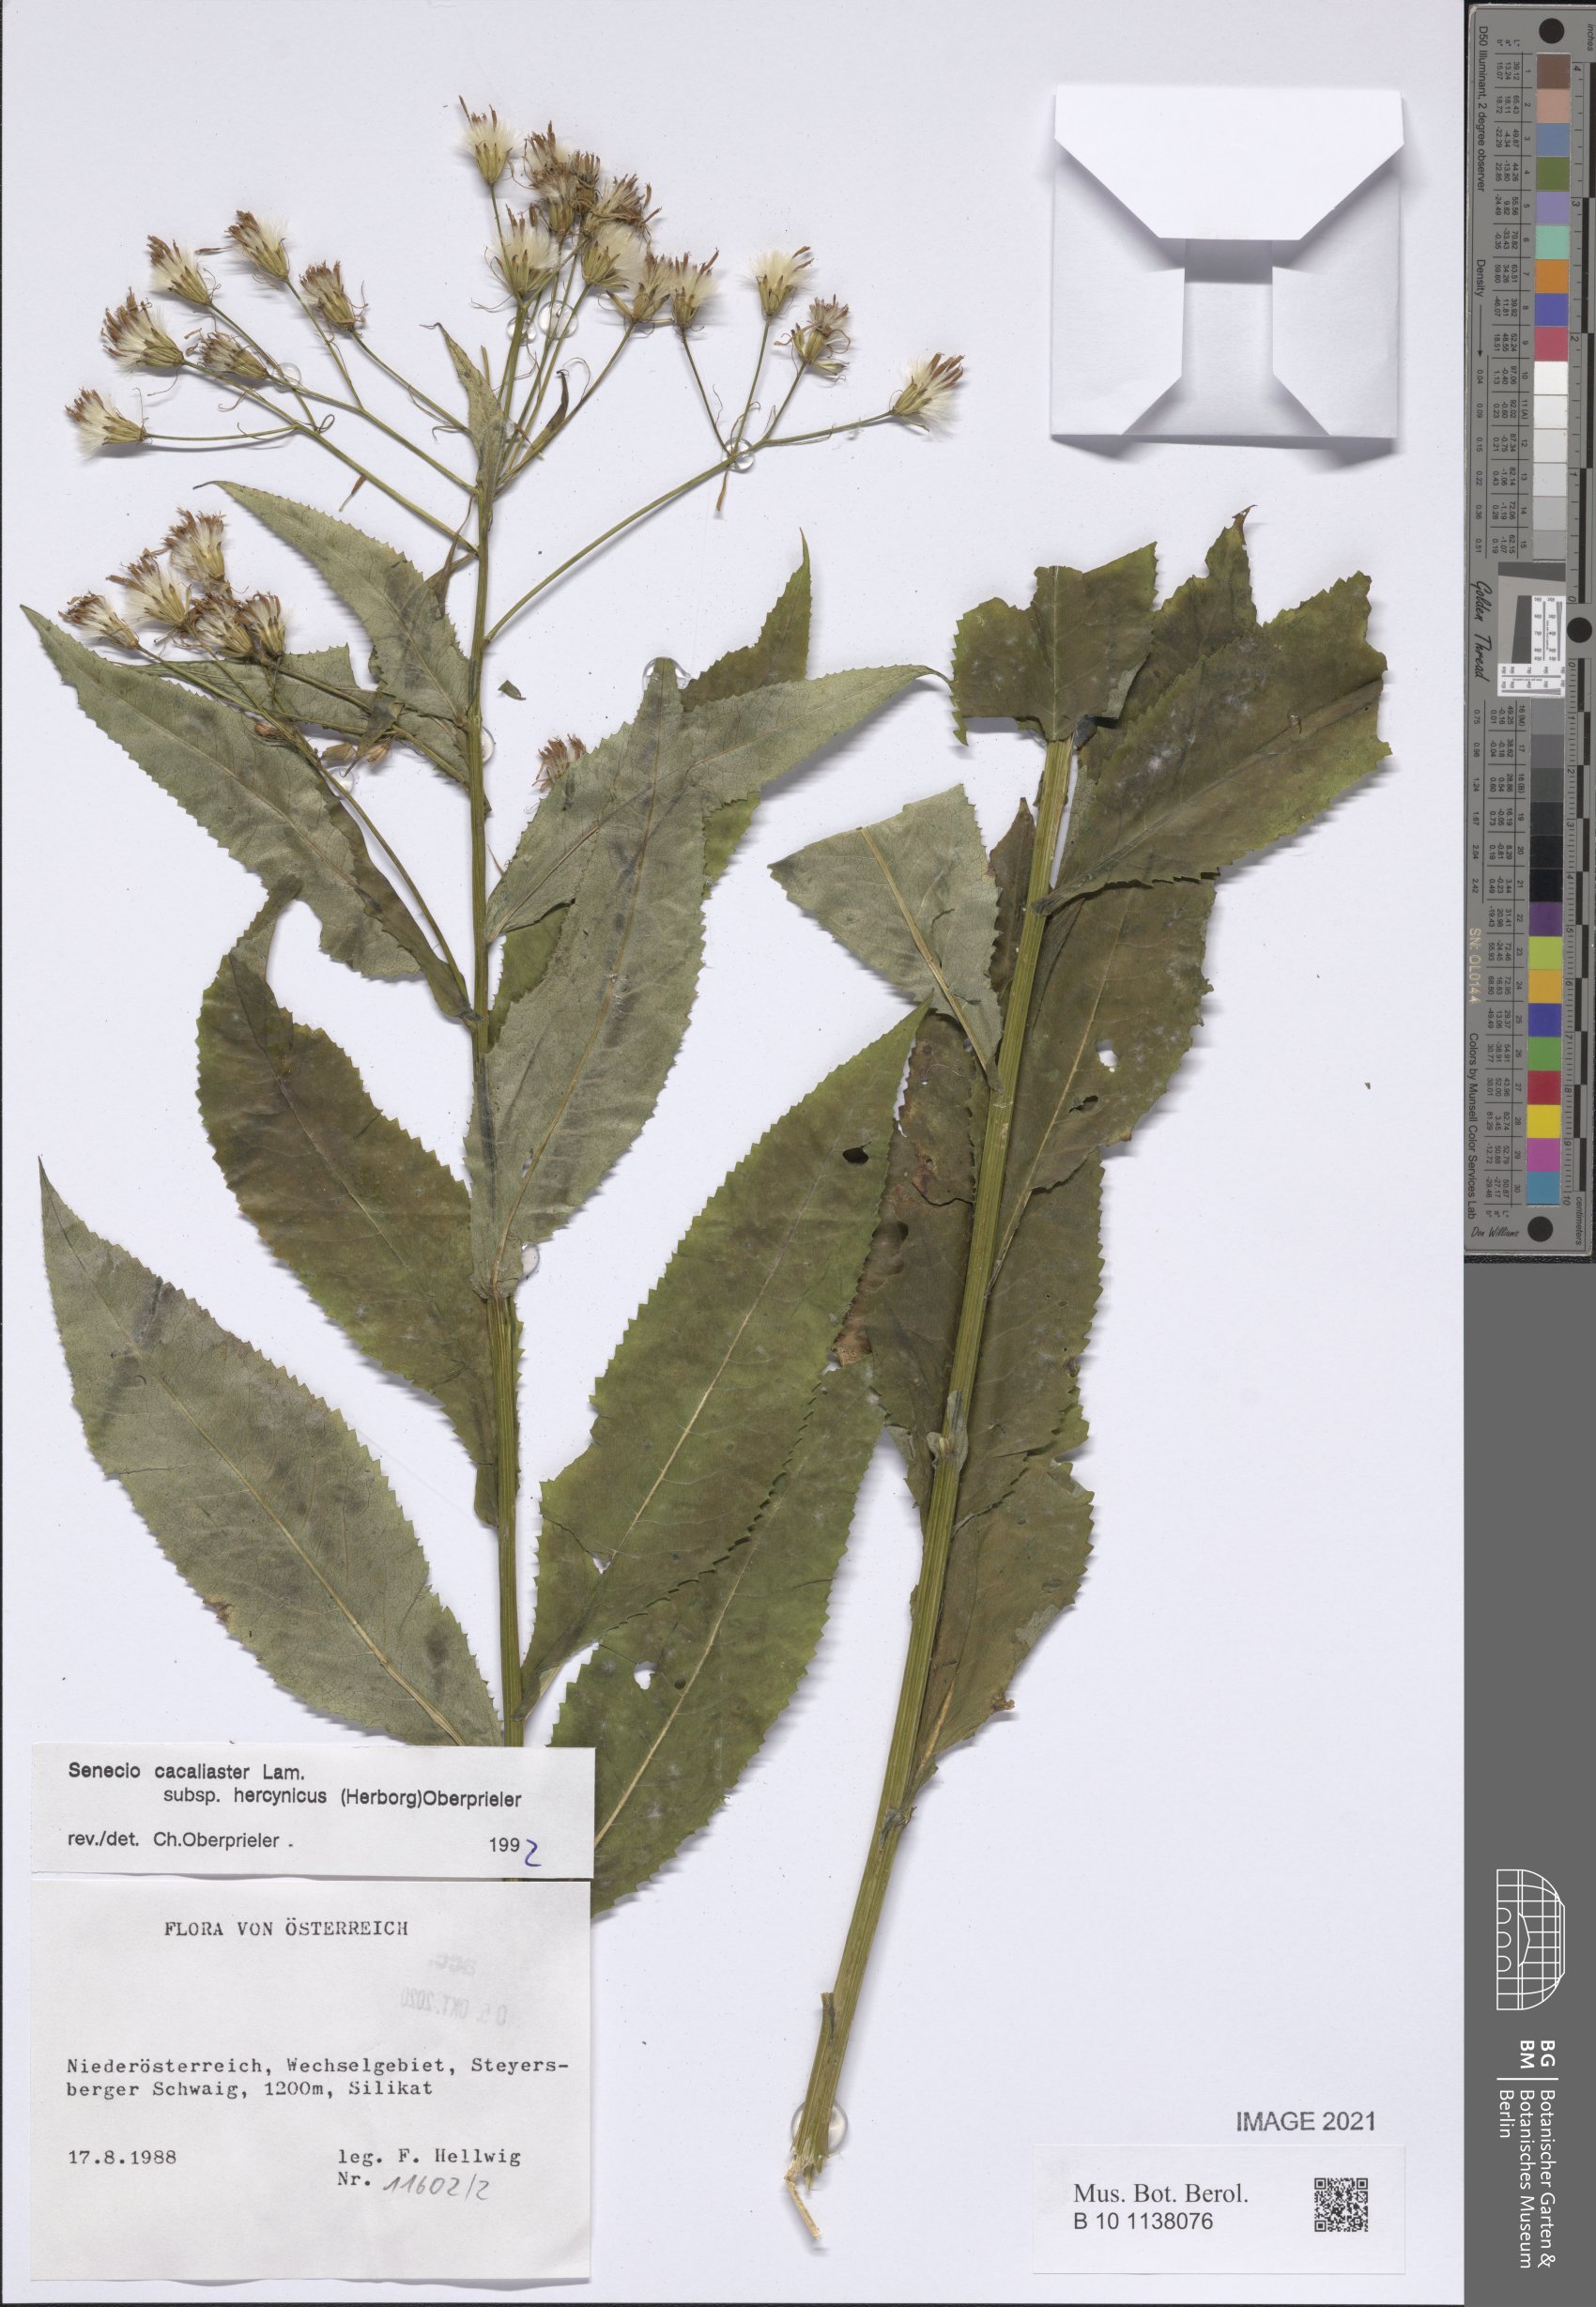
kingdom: Plantae
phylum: Tracheophyta
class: Magnoliopsida
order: Asterales
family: Asteraceae
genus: Senecio
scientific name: Senecio hercynicus
